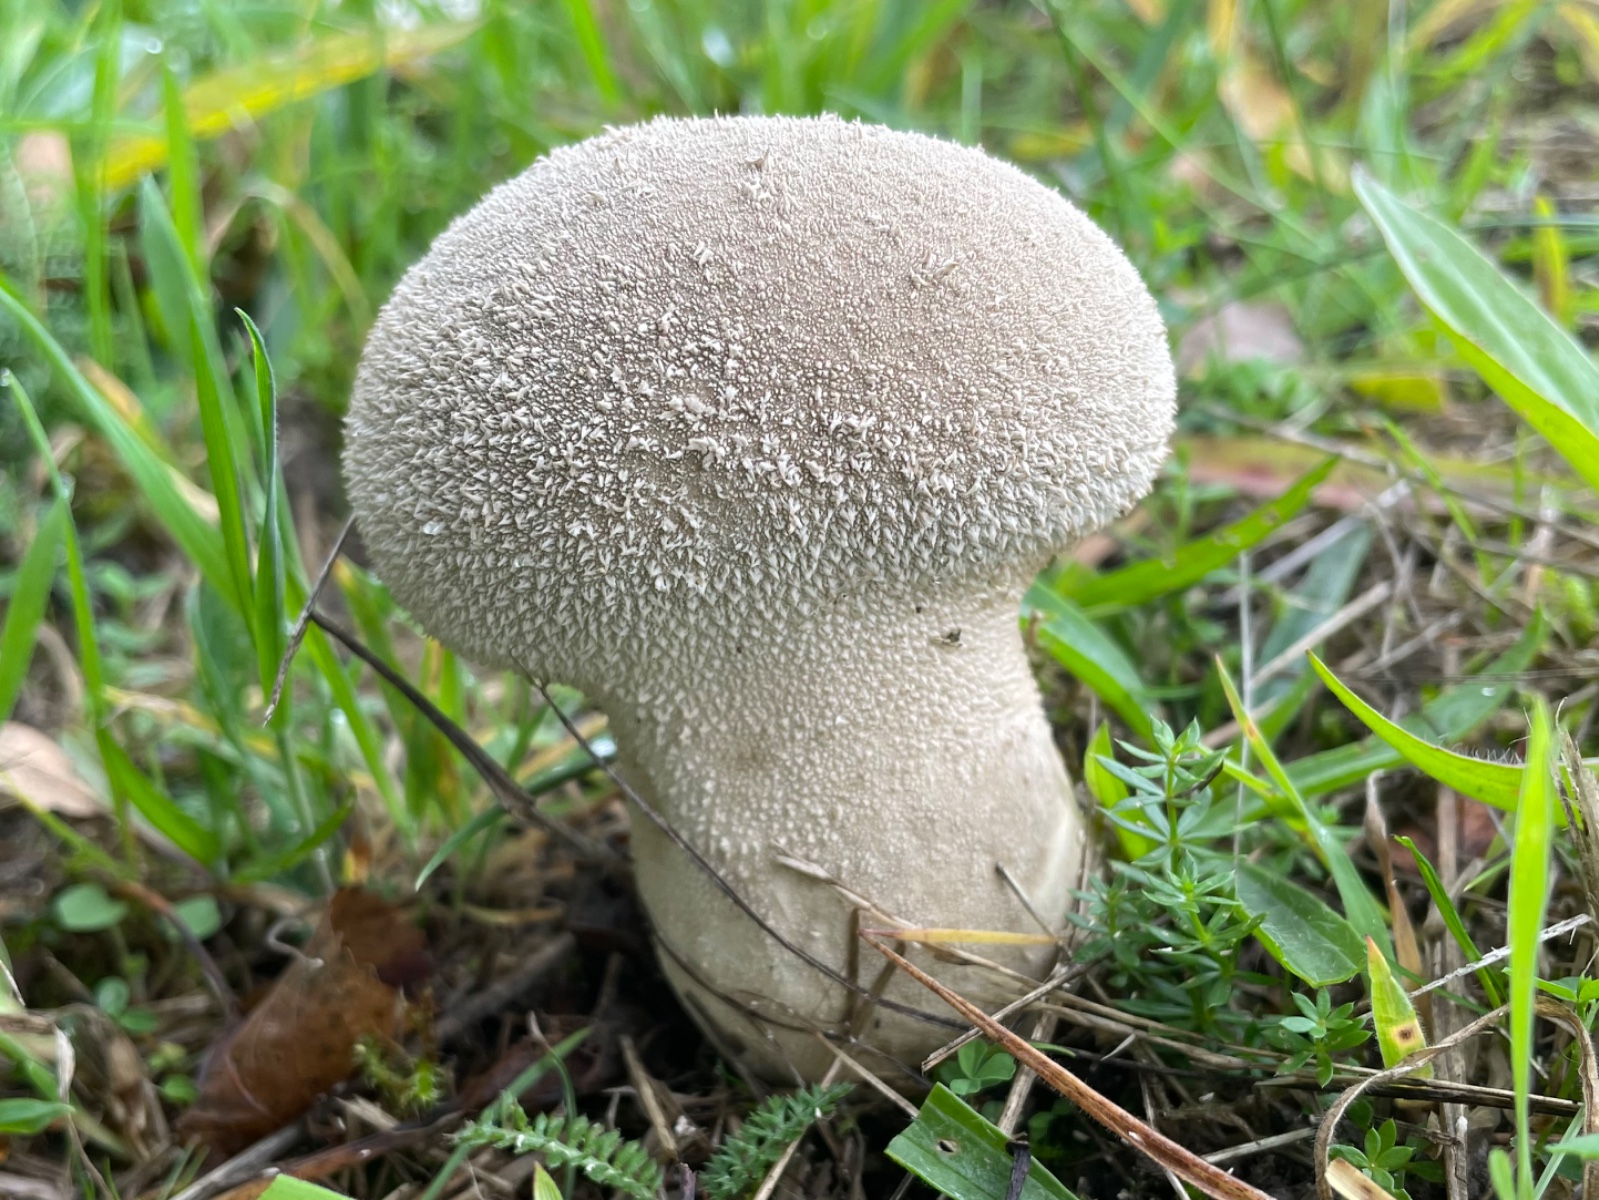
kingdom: Fungi
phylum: Basidiomycota
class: Agaricomycetes
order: Agaricales
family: Lycoperdaceae
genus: Lycoperdon
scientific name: Lycoperdon excipuliforme
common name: højstokket støvbold
